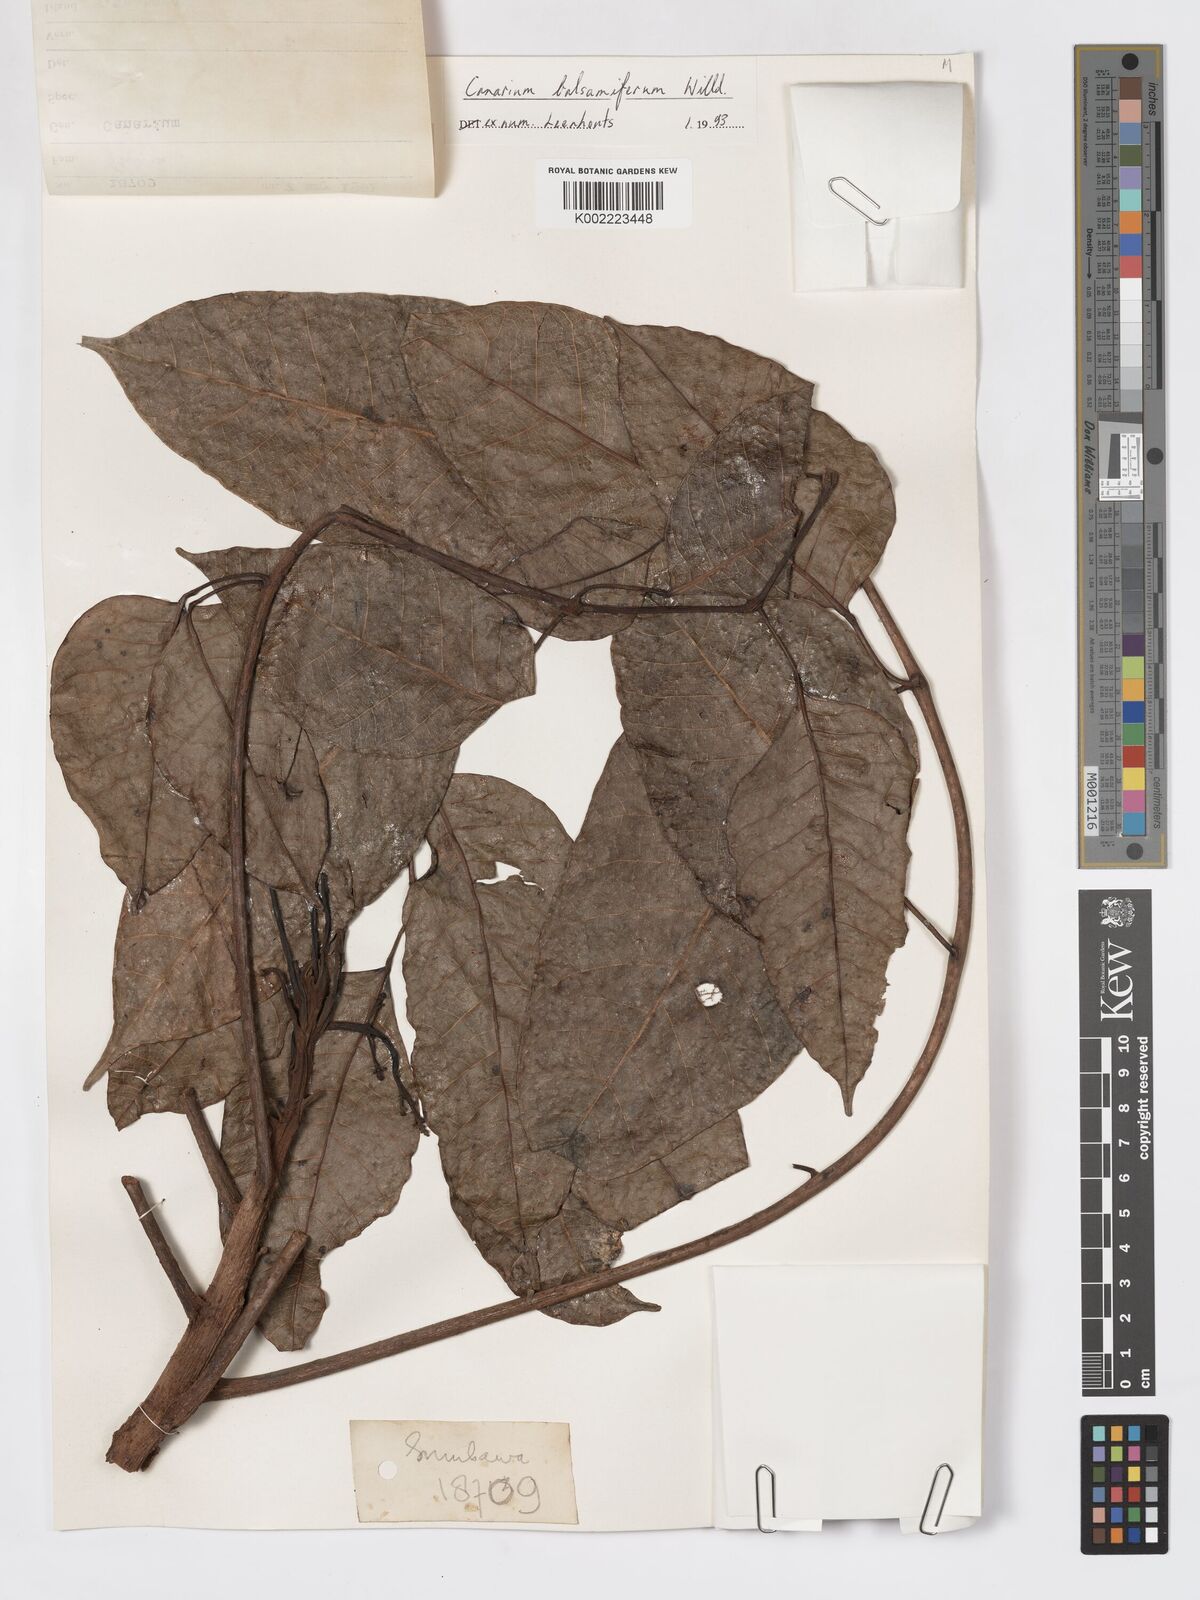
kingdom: Plantae
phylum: Tracheophyta
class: Magnoliopsida
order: Sapindales
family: Burseraceae
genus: Canarium
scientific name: Canarium
